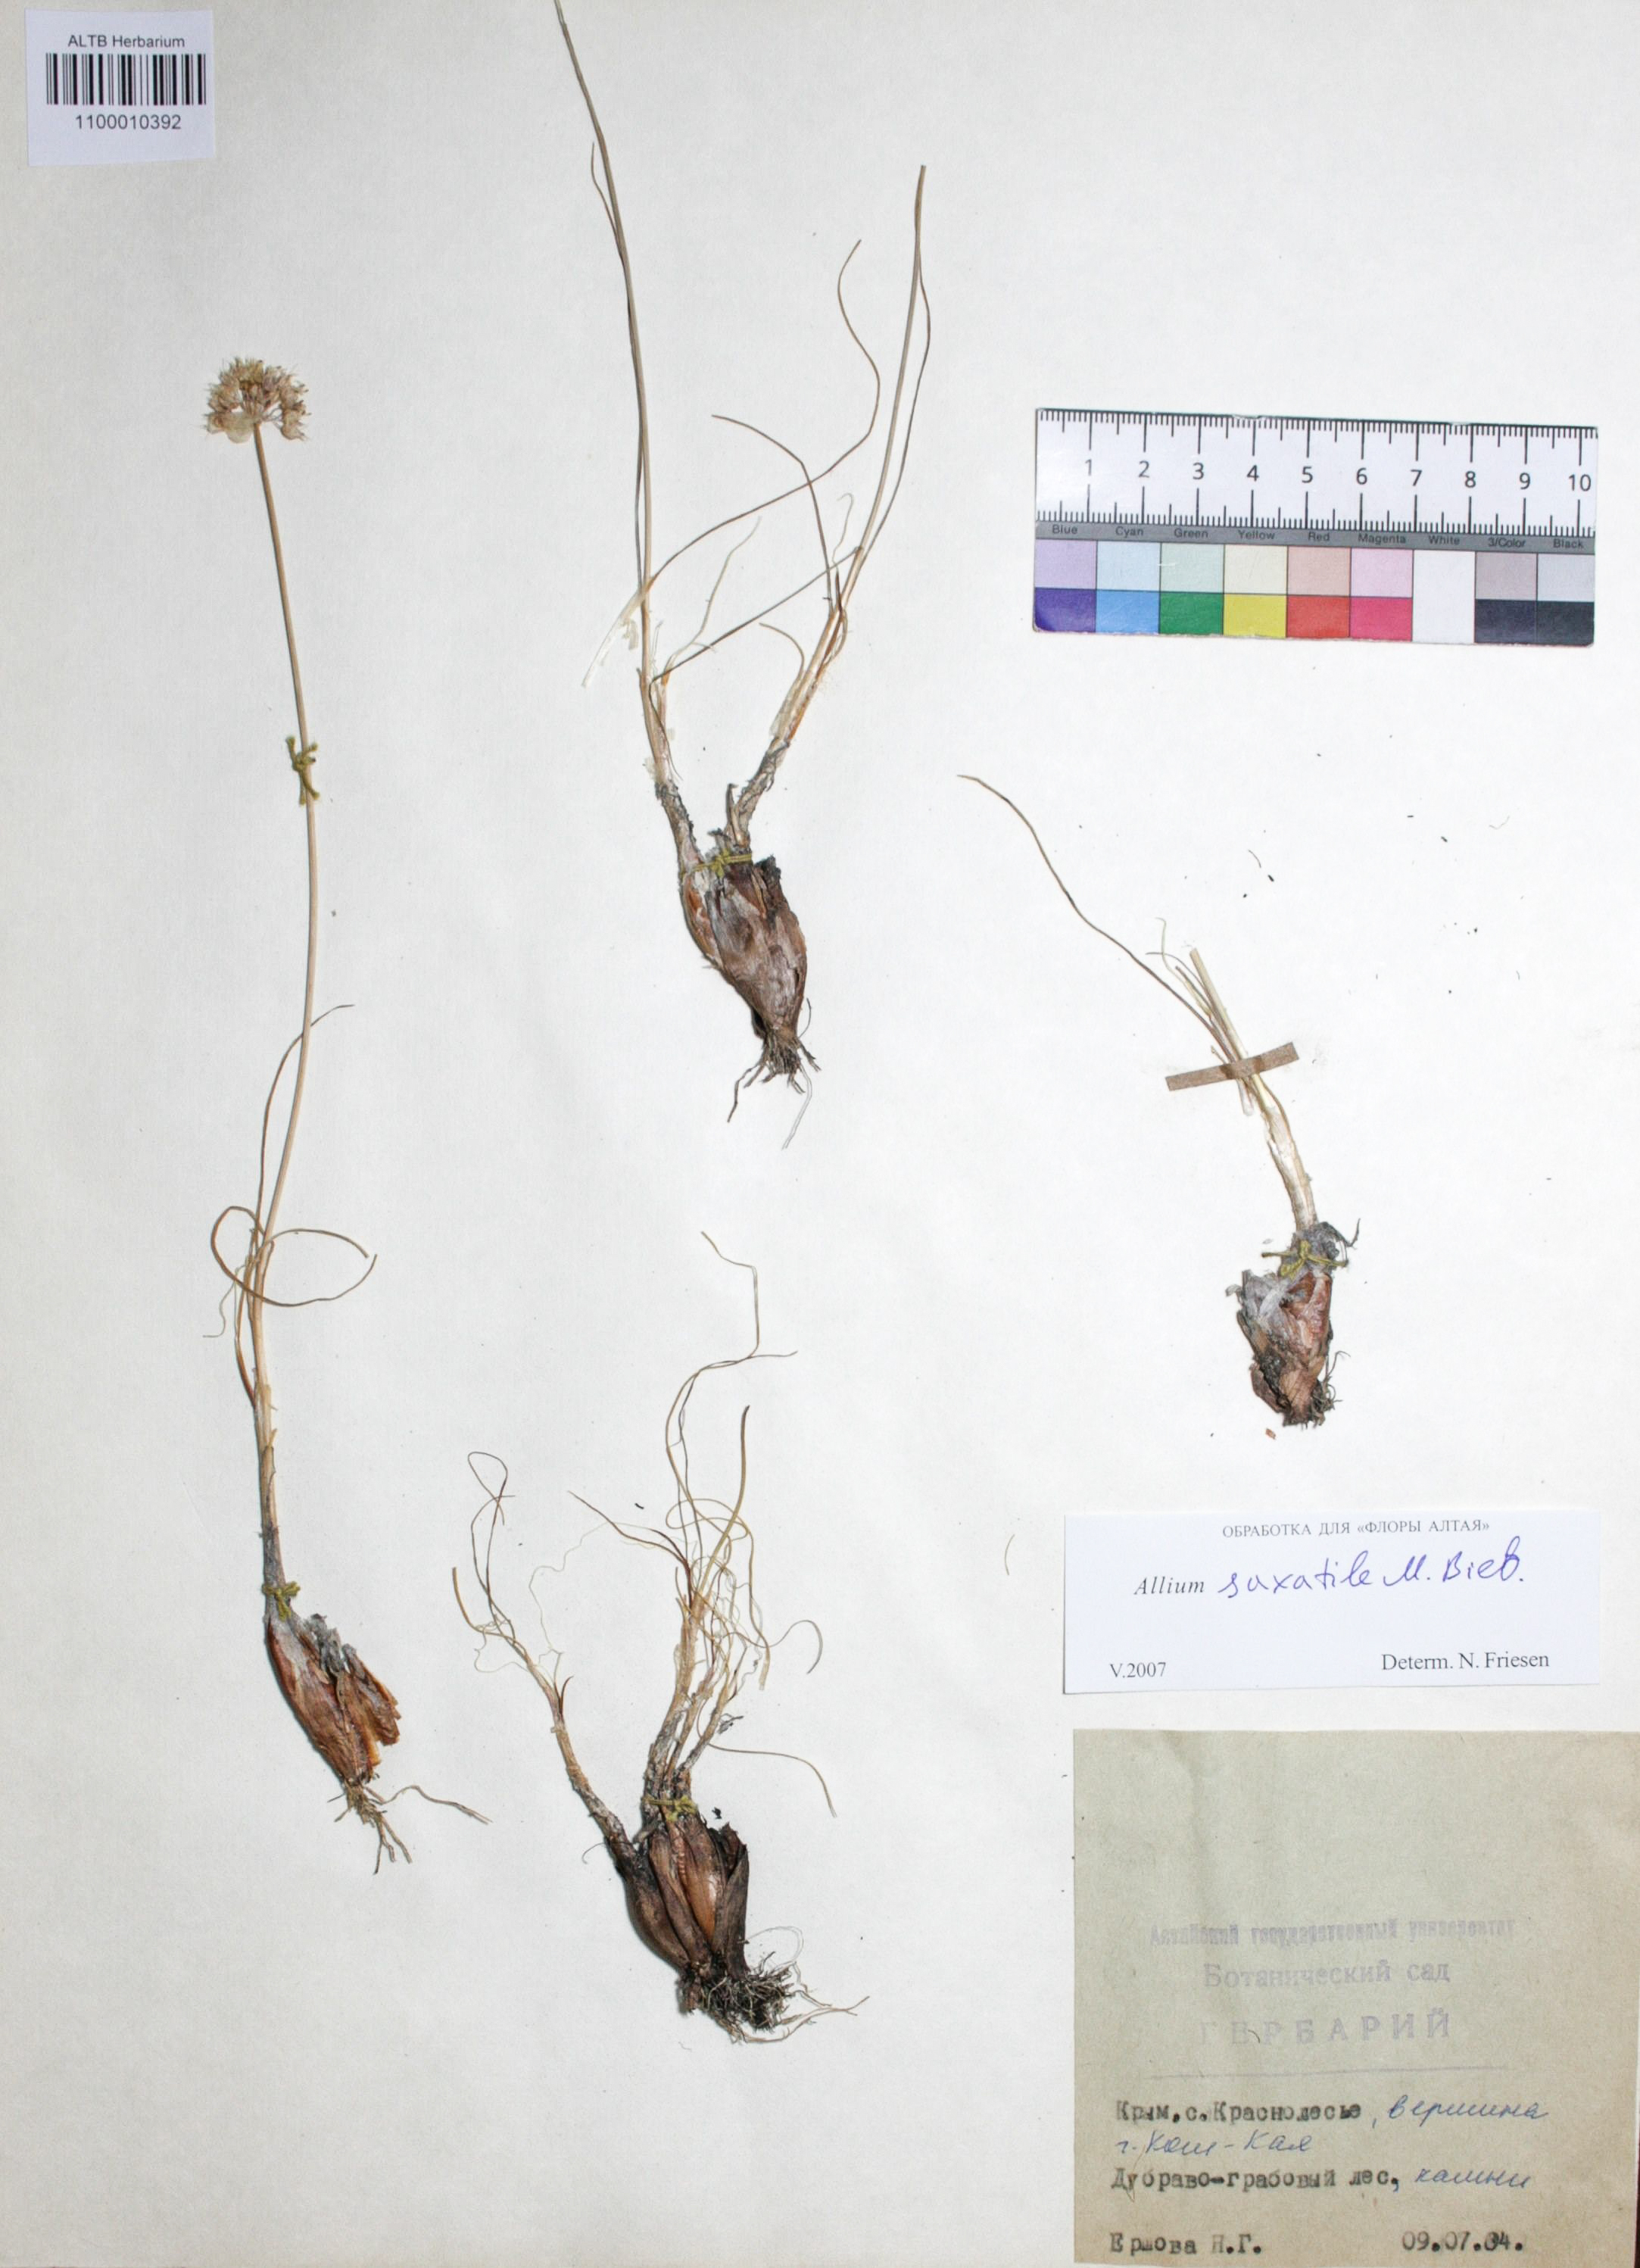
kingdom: Plantae
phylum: Tracheophyta
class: Liliopsida
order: Asparagales
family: Amaryllidaceae
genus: Allium
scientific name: Allium saxatile
